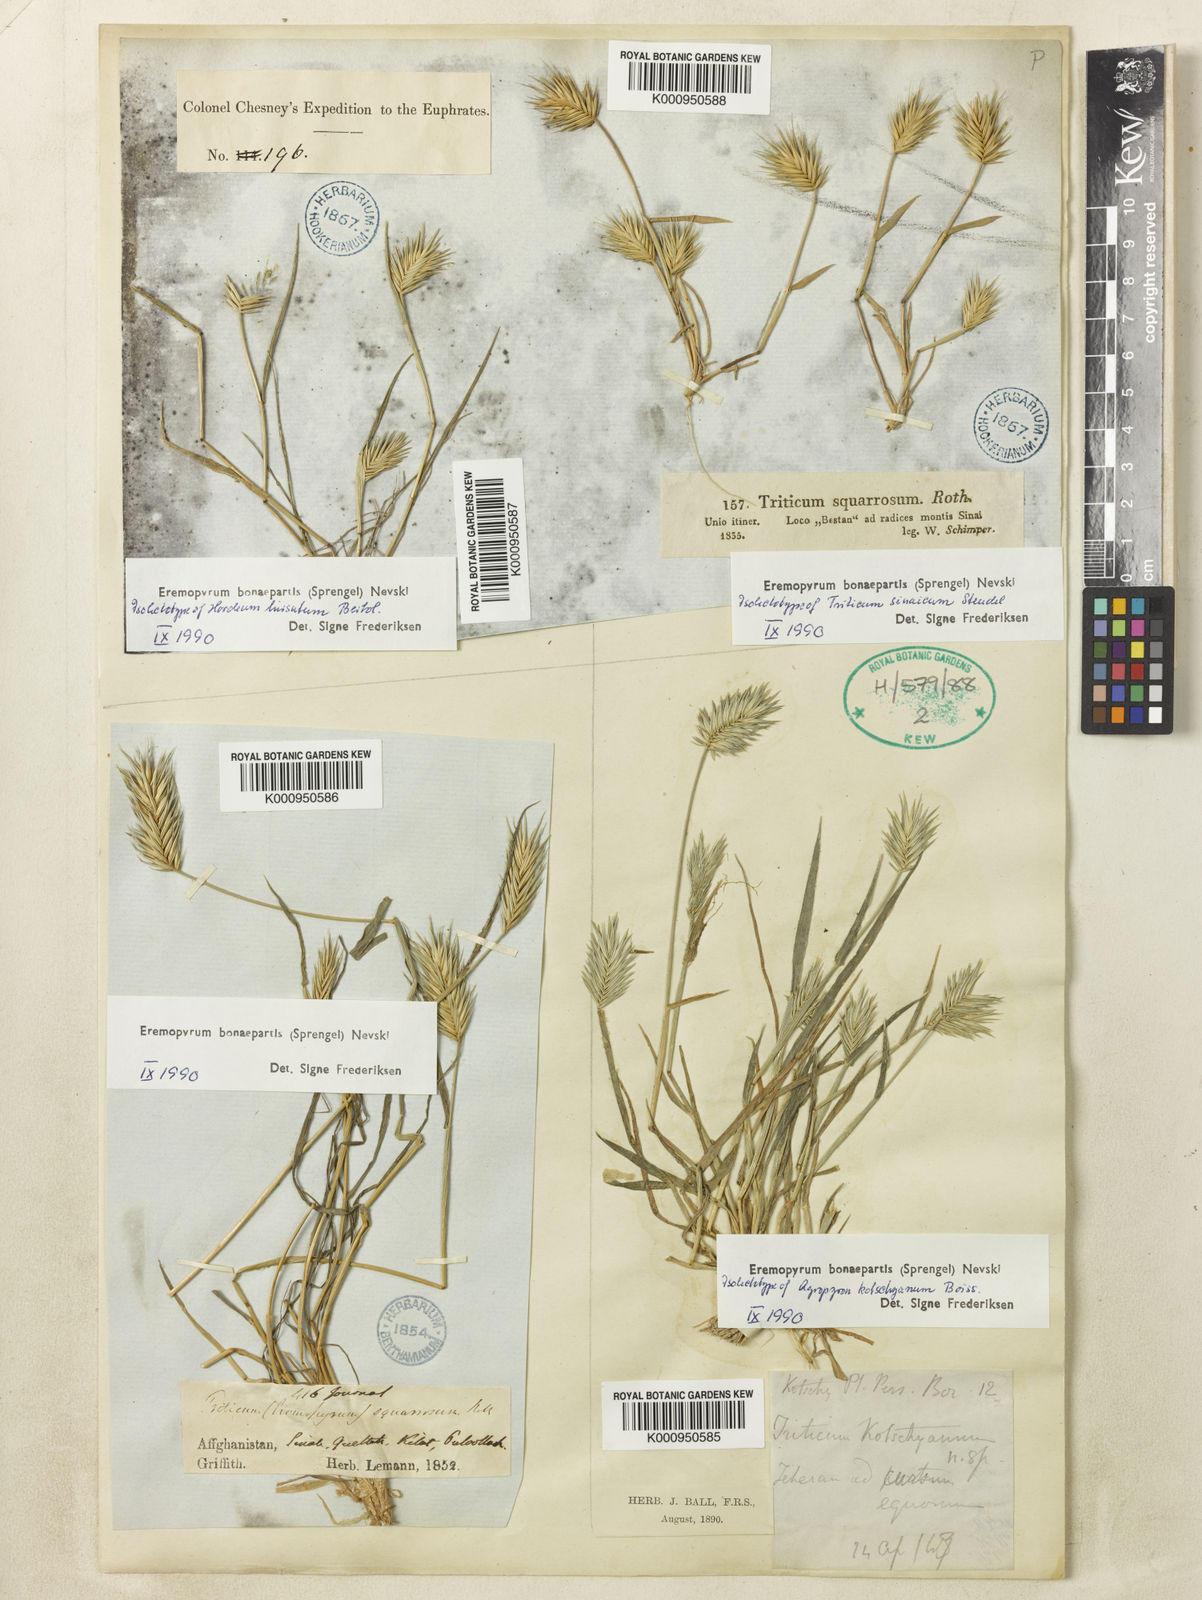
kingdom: Plantae
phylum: Tracheophyta
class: Liliopsida
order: Poales
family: Poaceae
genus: Eremopyrum
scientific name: Eremopyrum bonaepartis
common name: Tapertip false wheatgrass
